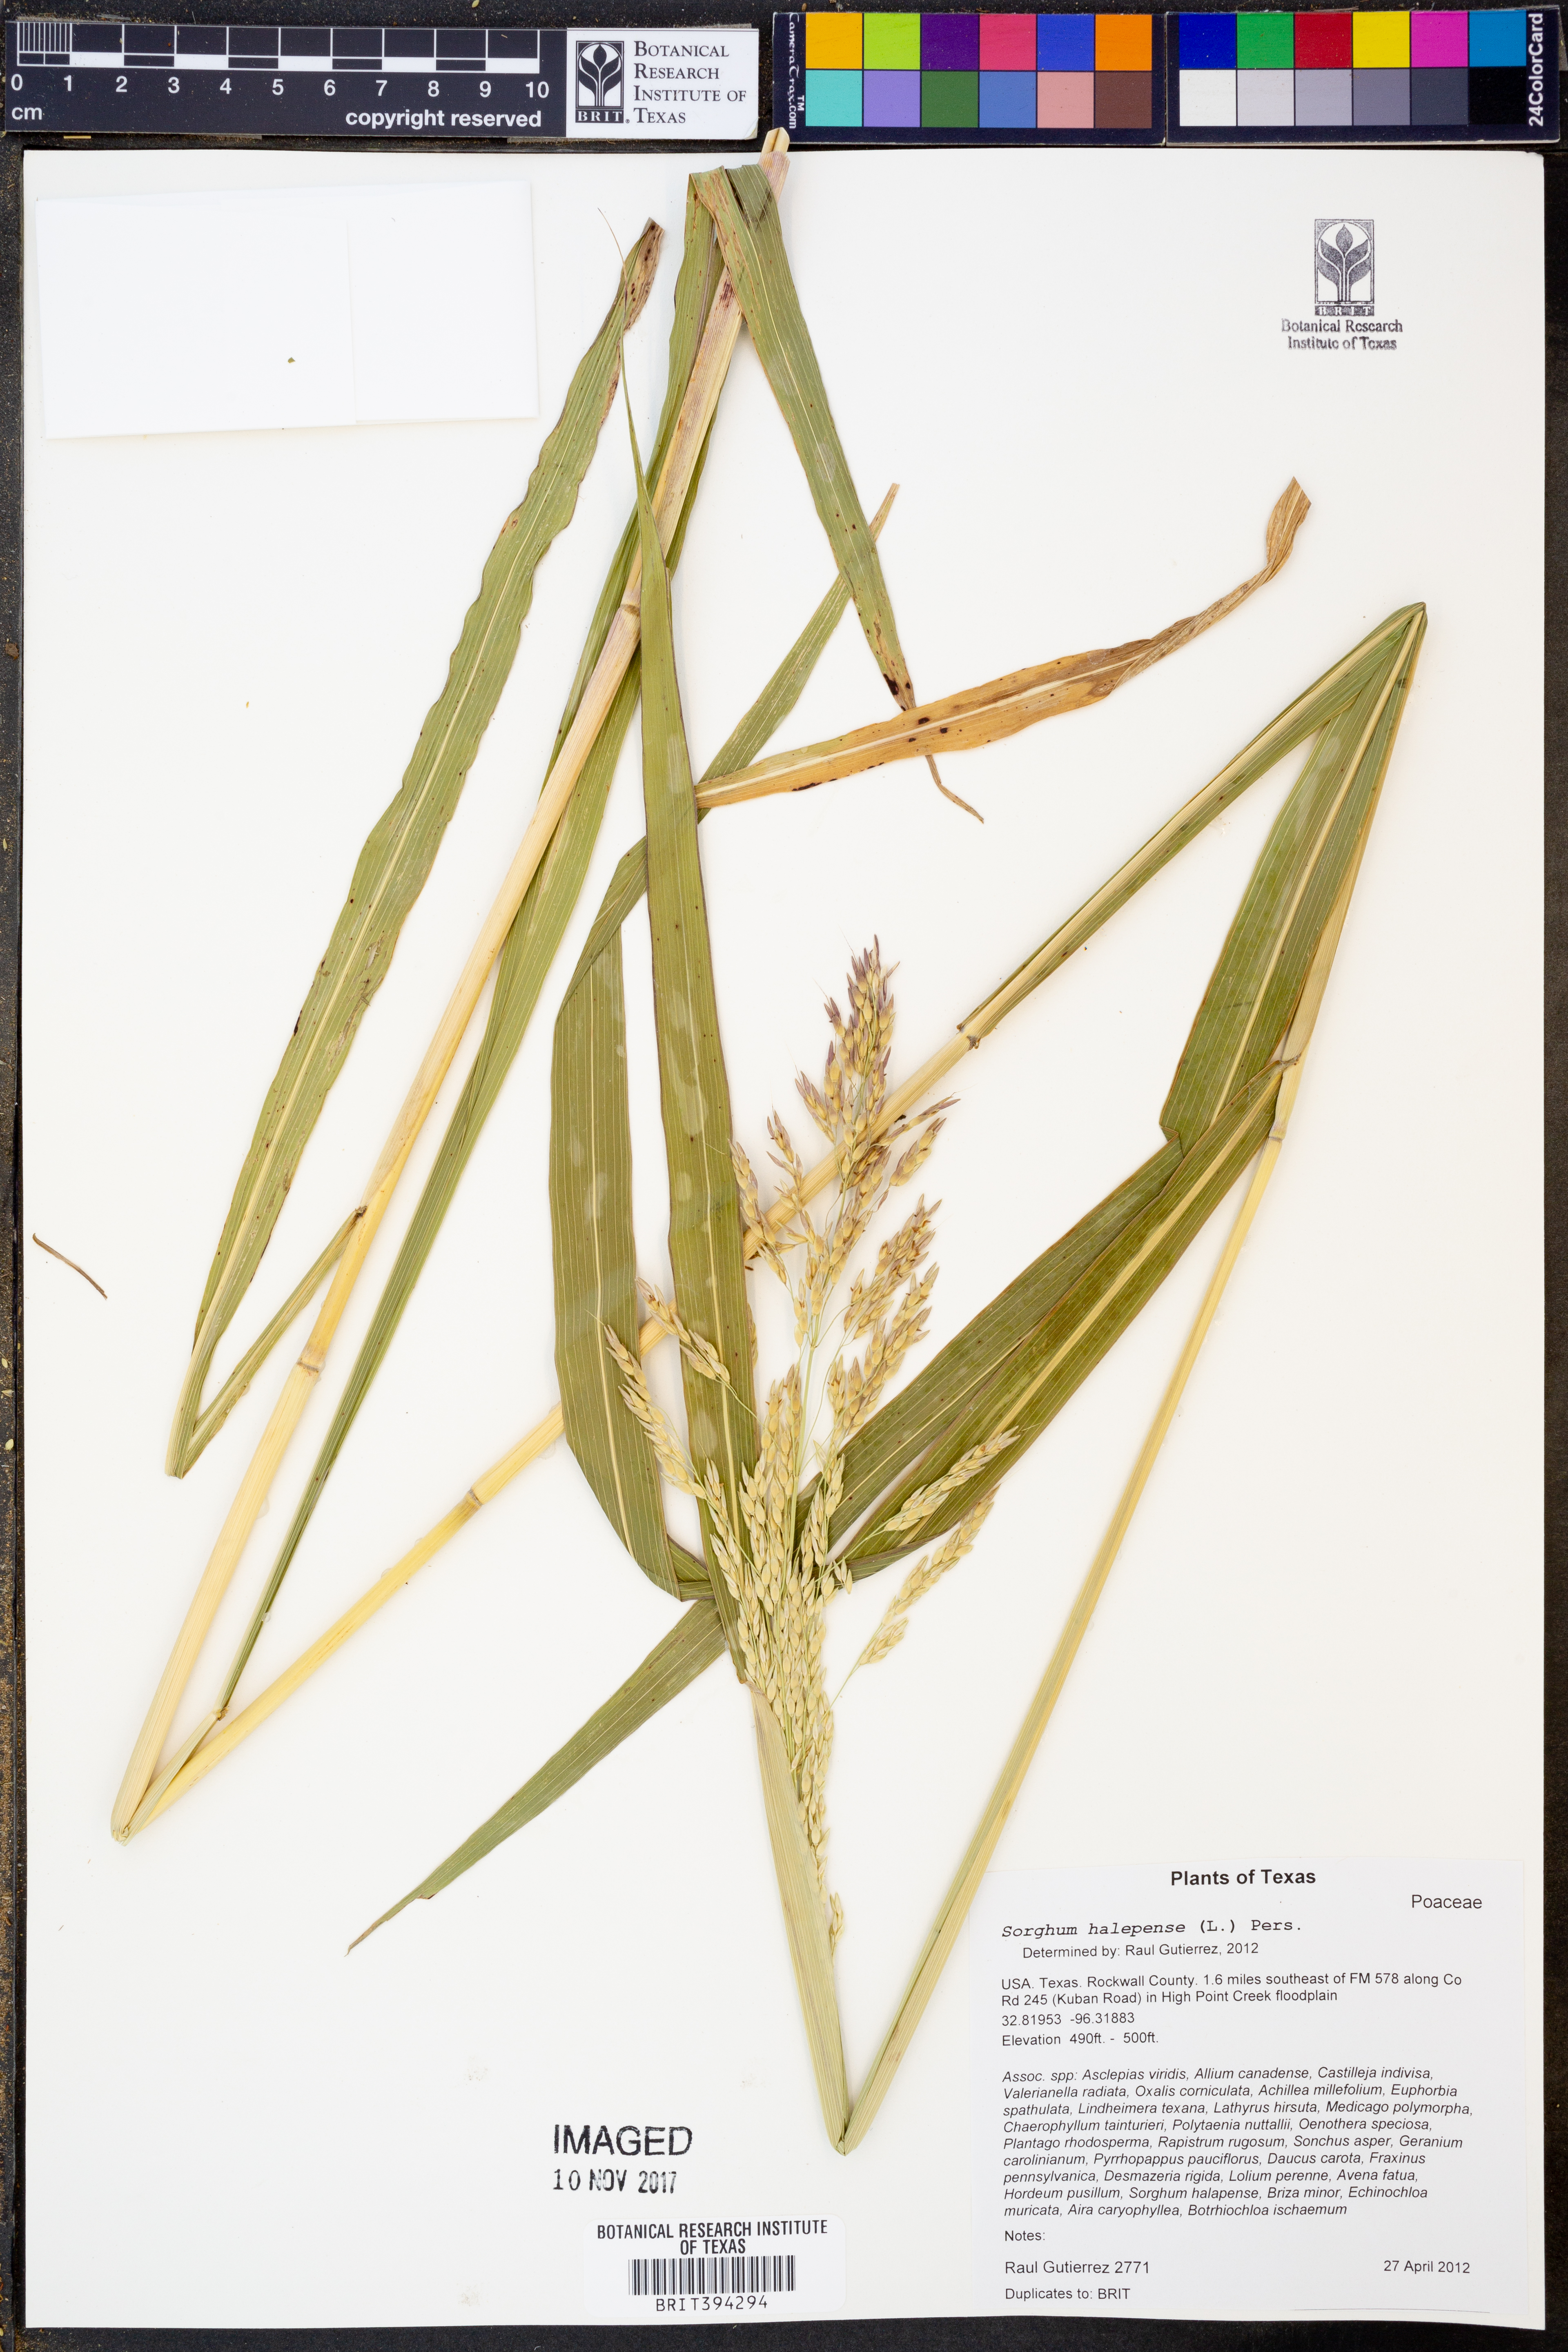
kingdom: Plantae
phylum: Tracheophyta
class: Liliopsida
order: Poales
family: Poaceae
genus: Sorghum
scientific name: Sorghum halepense
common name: Johnson-grass
